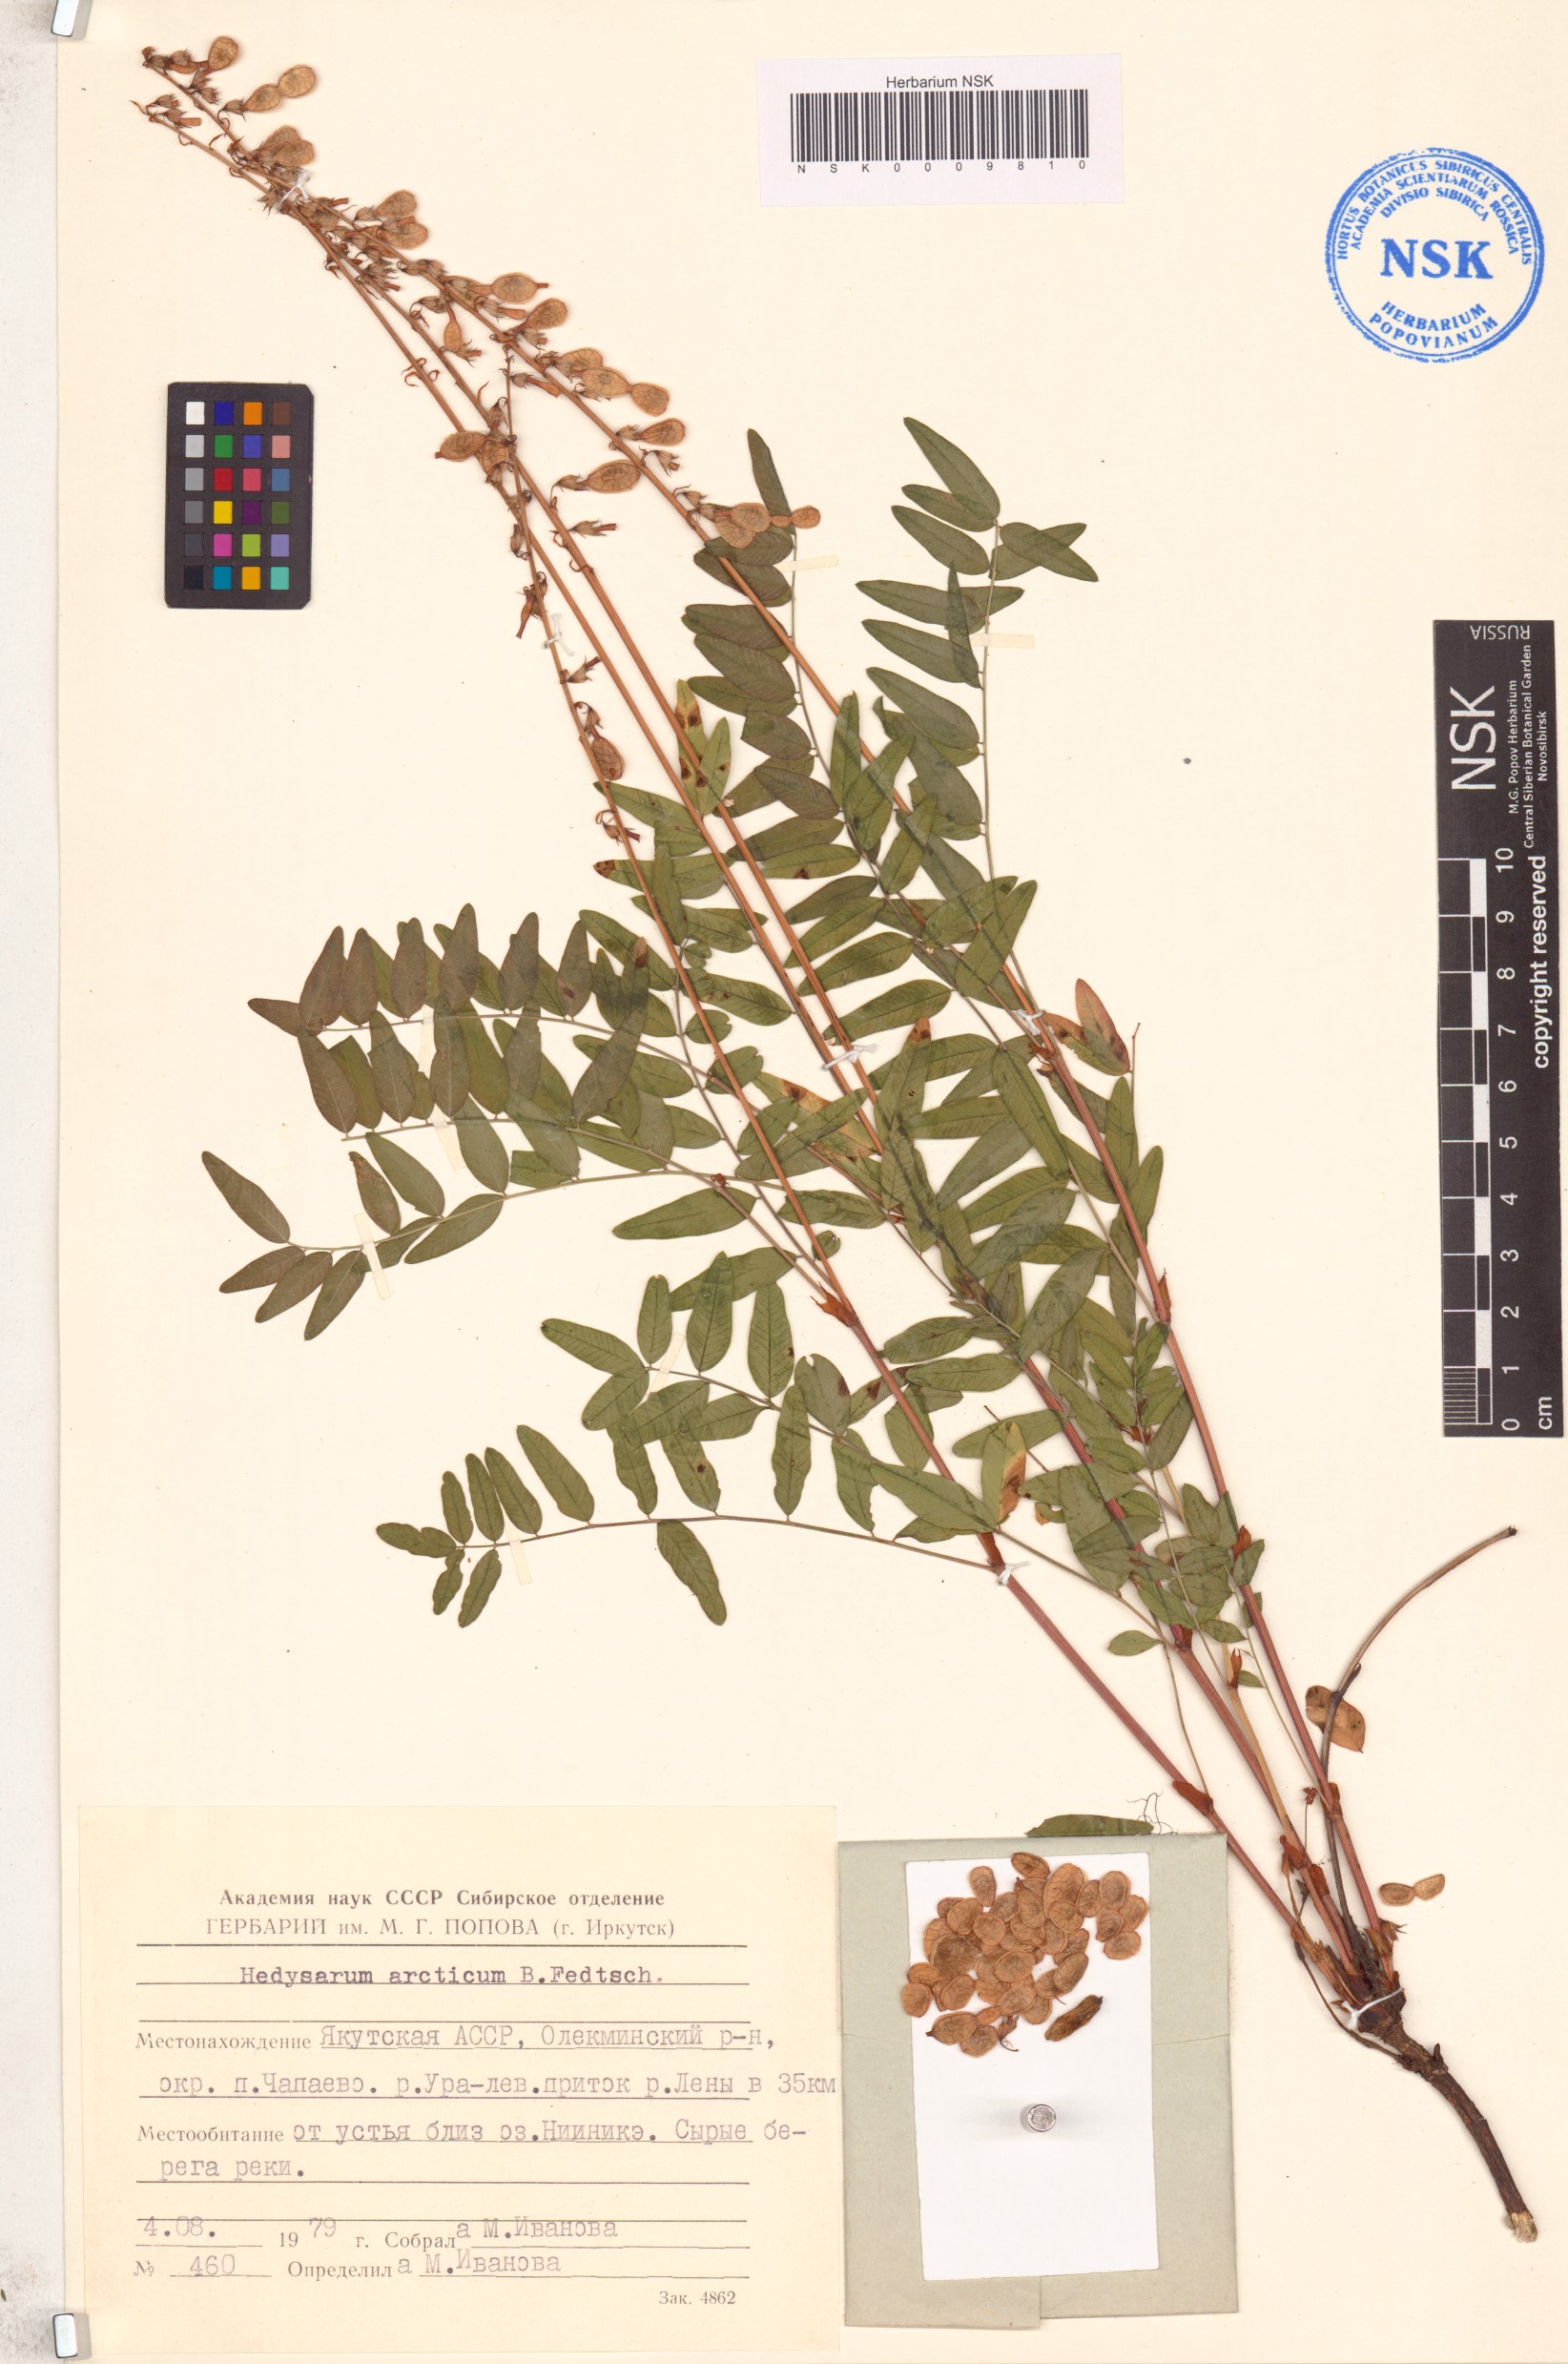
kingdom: Plantae
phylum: Tracheophyta
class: Magnoliopsida
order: Fabales
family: Fabaceae
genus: Hedysarum
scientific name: Hedysarum hedysaroides
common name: Alpine french-honeysuckle
